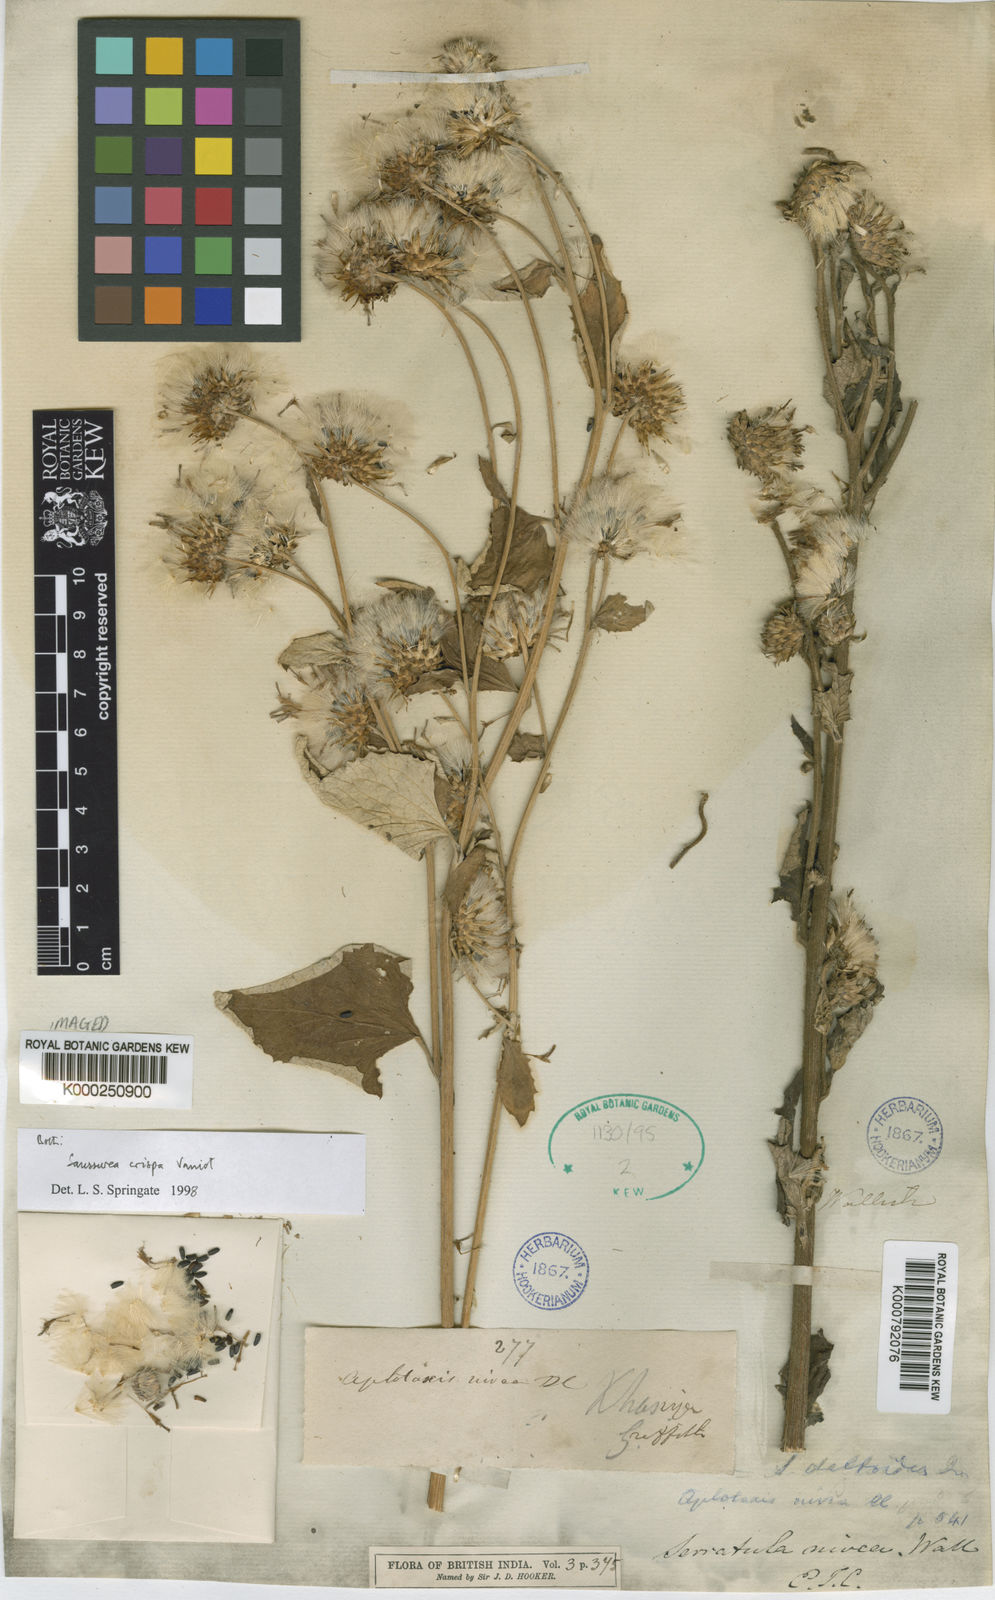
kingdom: Plantae
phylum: Tracheophyta
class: Magnoliopsida
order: Asterales
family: Asteraceae
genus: Jurinea
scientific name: Jurinea crispa
